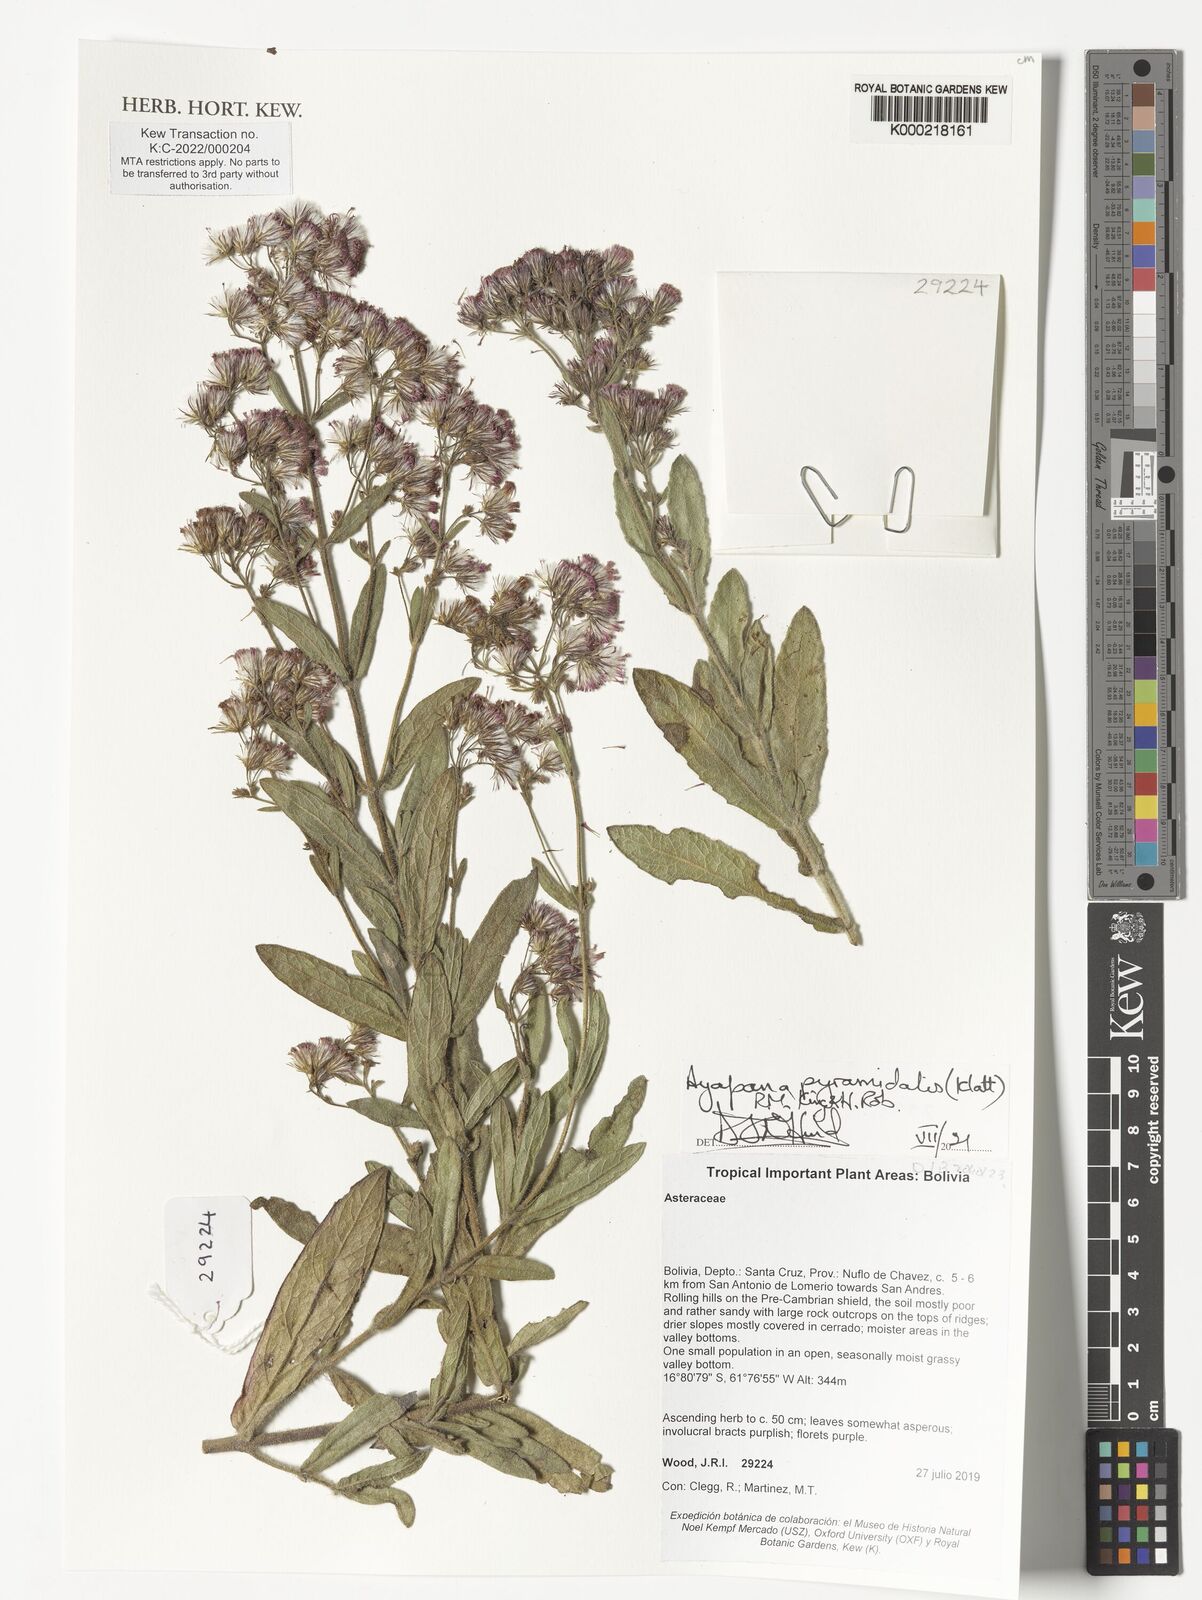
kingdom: Plantae
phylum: Tracheophyta
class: Magnoliopsida
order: Asterales
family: Asteraceae
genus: Ayapana
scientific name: Ayapana stenolepis
